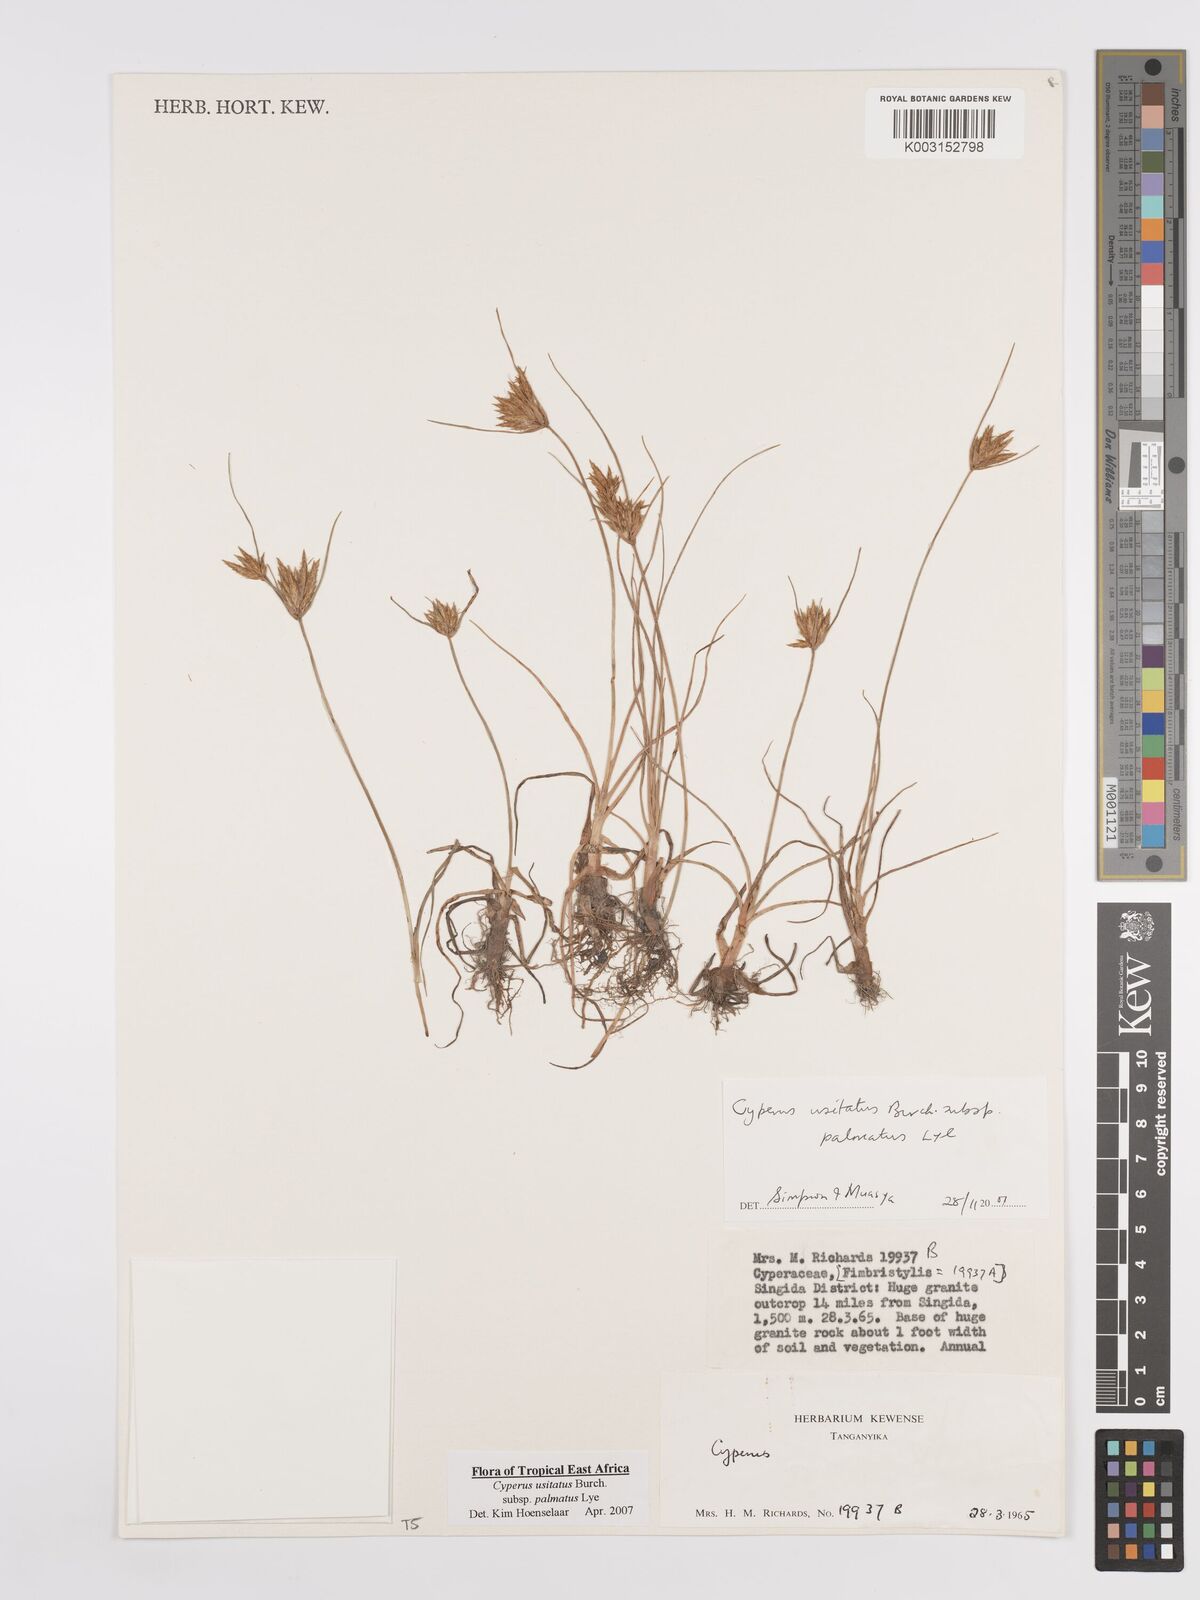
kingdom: Plantae
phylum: Tracheophyta
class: Liliopsida
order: Poales
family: Cyperaceae
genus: Cyperus
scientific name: Cyperus palmatus
